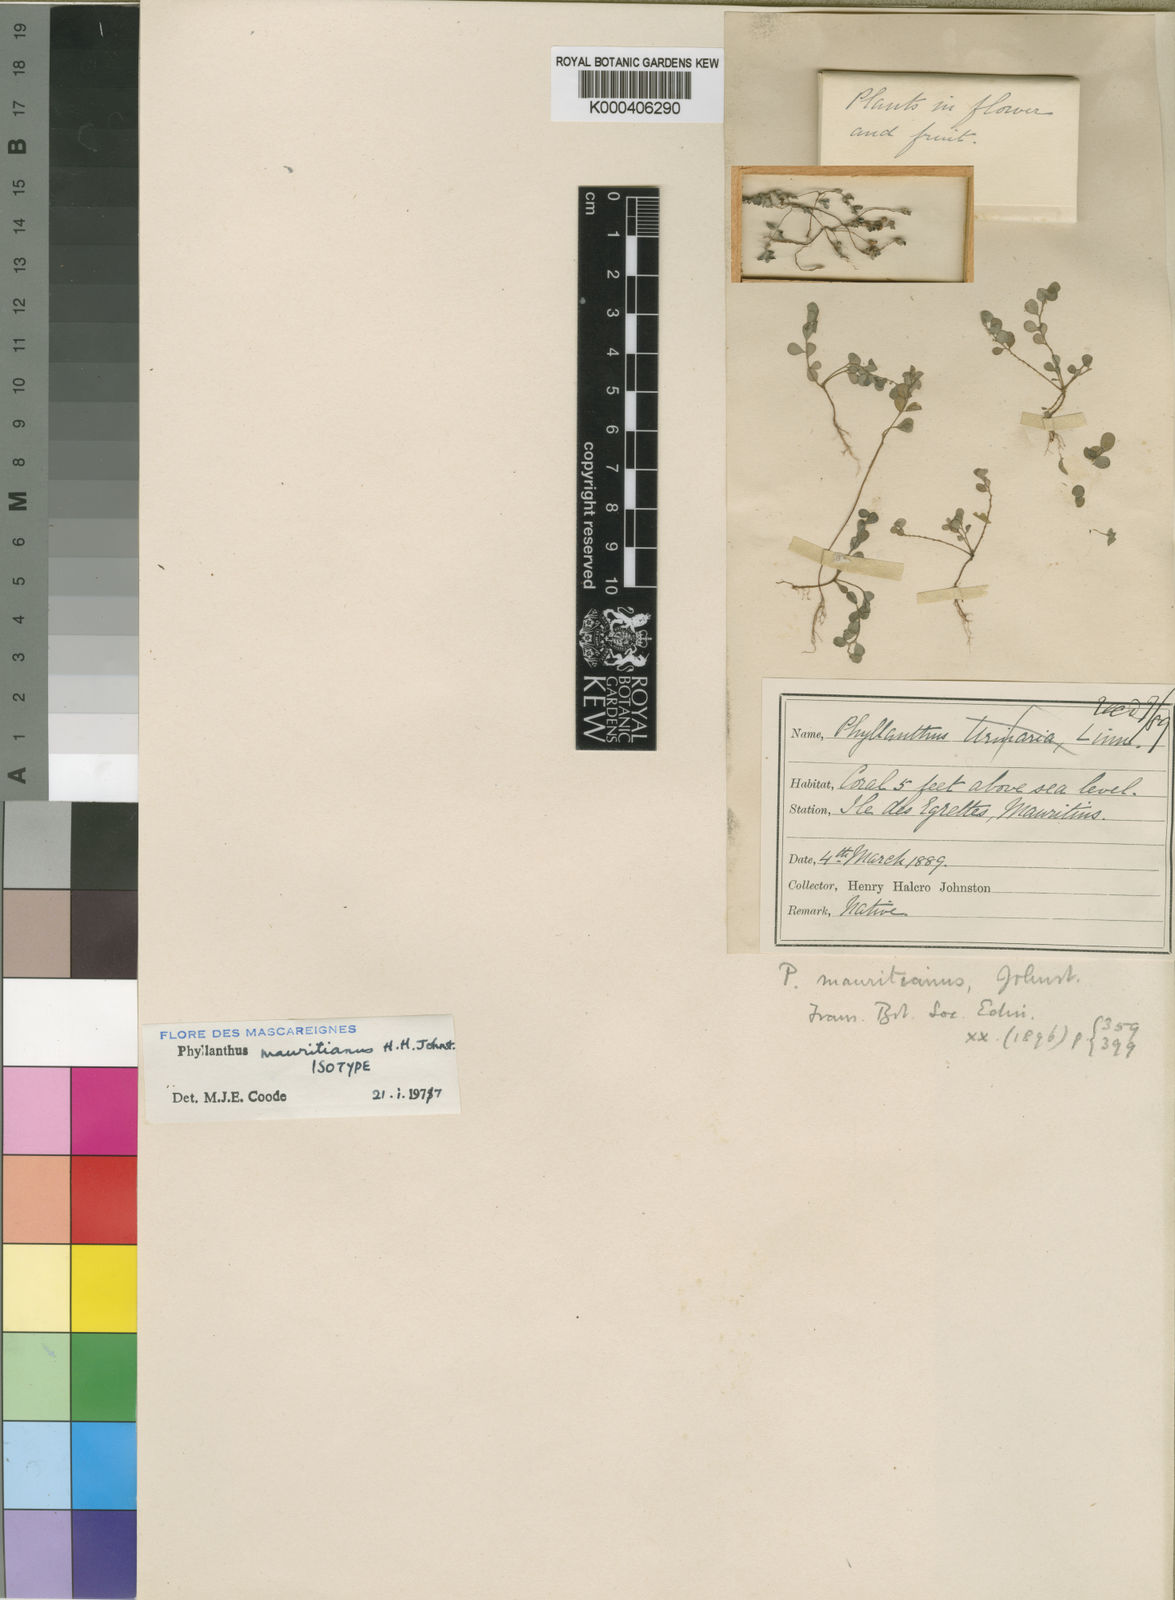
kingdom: Plantae
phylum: Tracheophyta
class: Magnoliopsida
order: Malpighiales
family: Phyllanthaceae
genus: Phyllanthus
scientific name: Phyllanthus urinaria
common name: Chamber bitter
